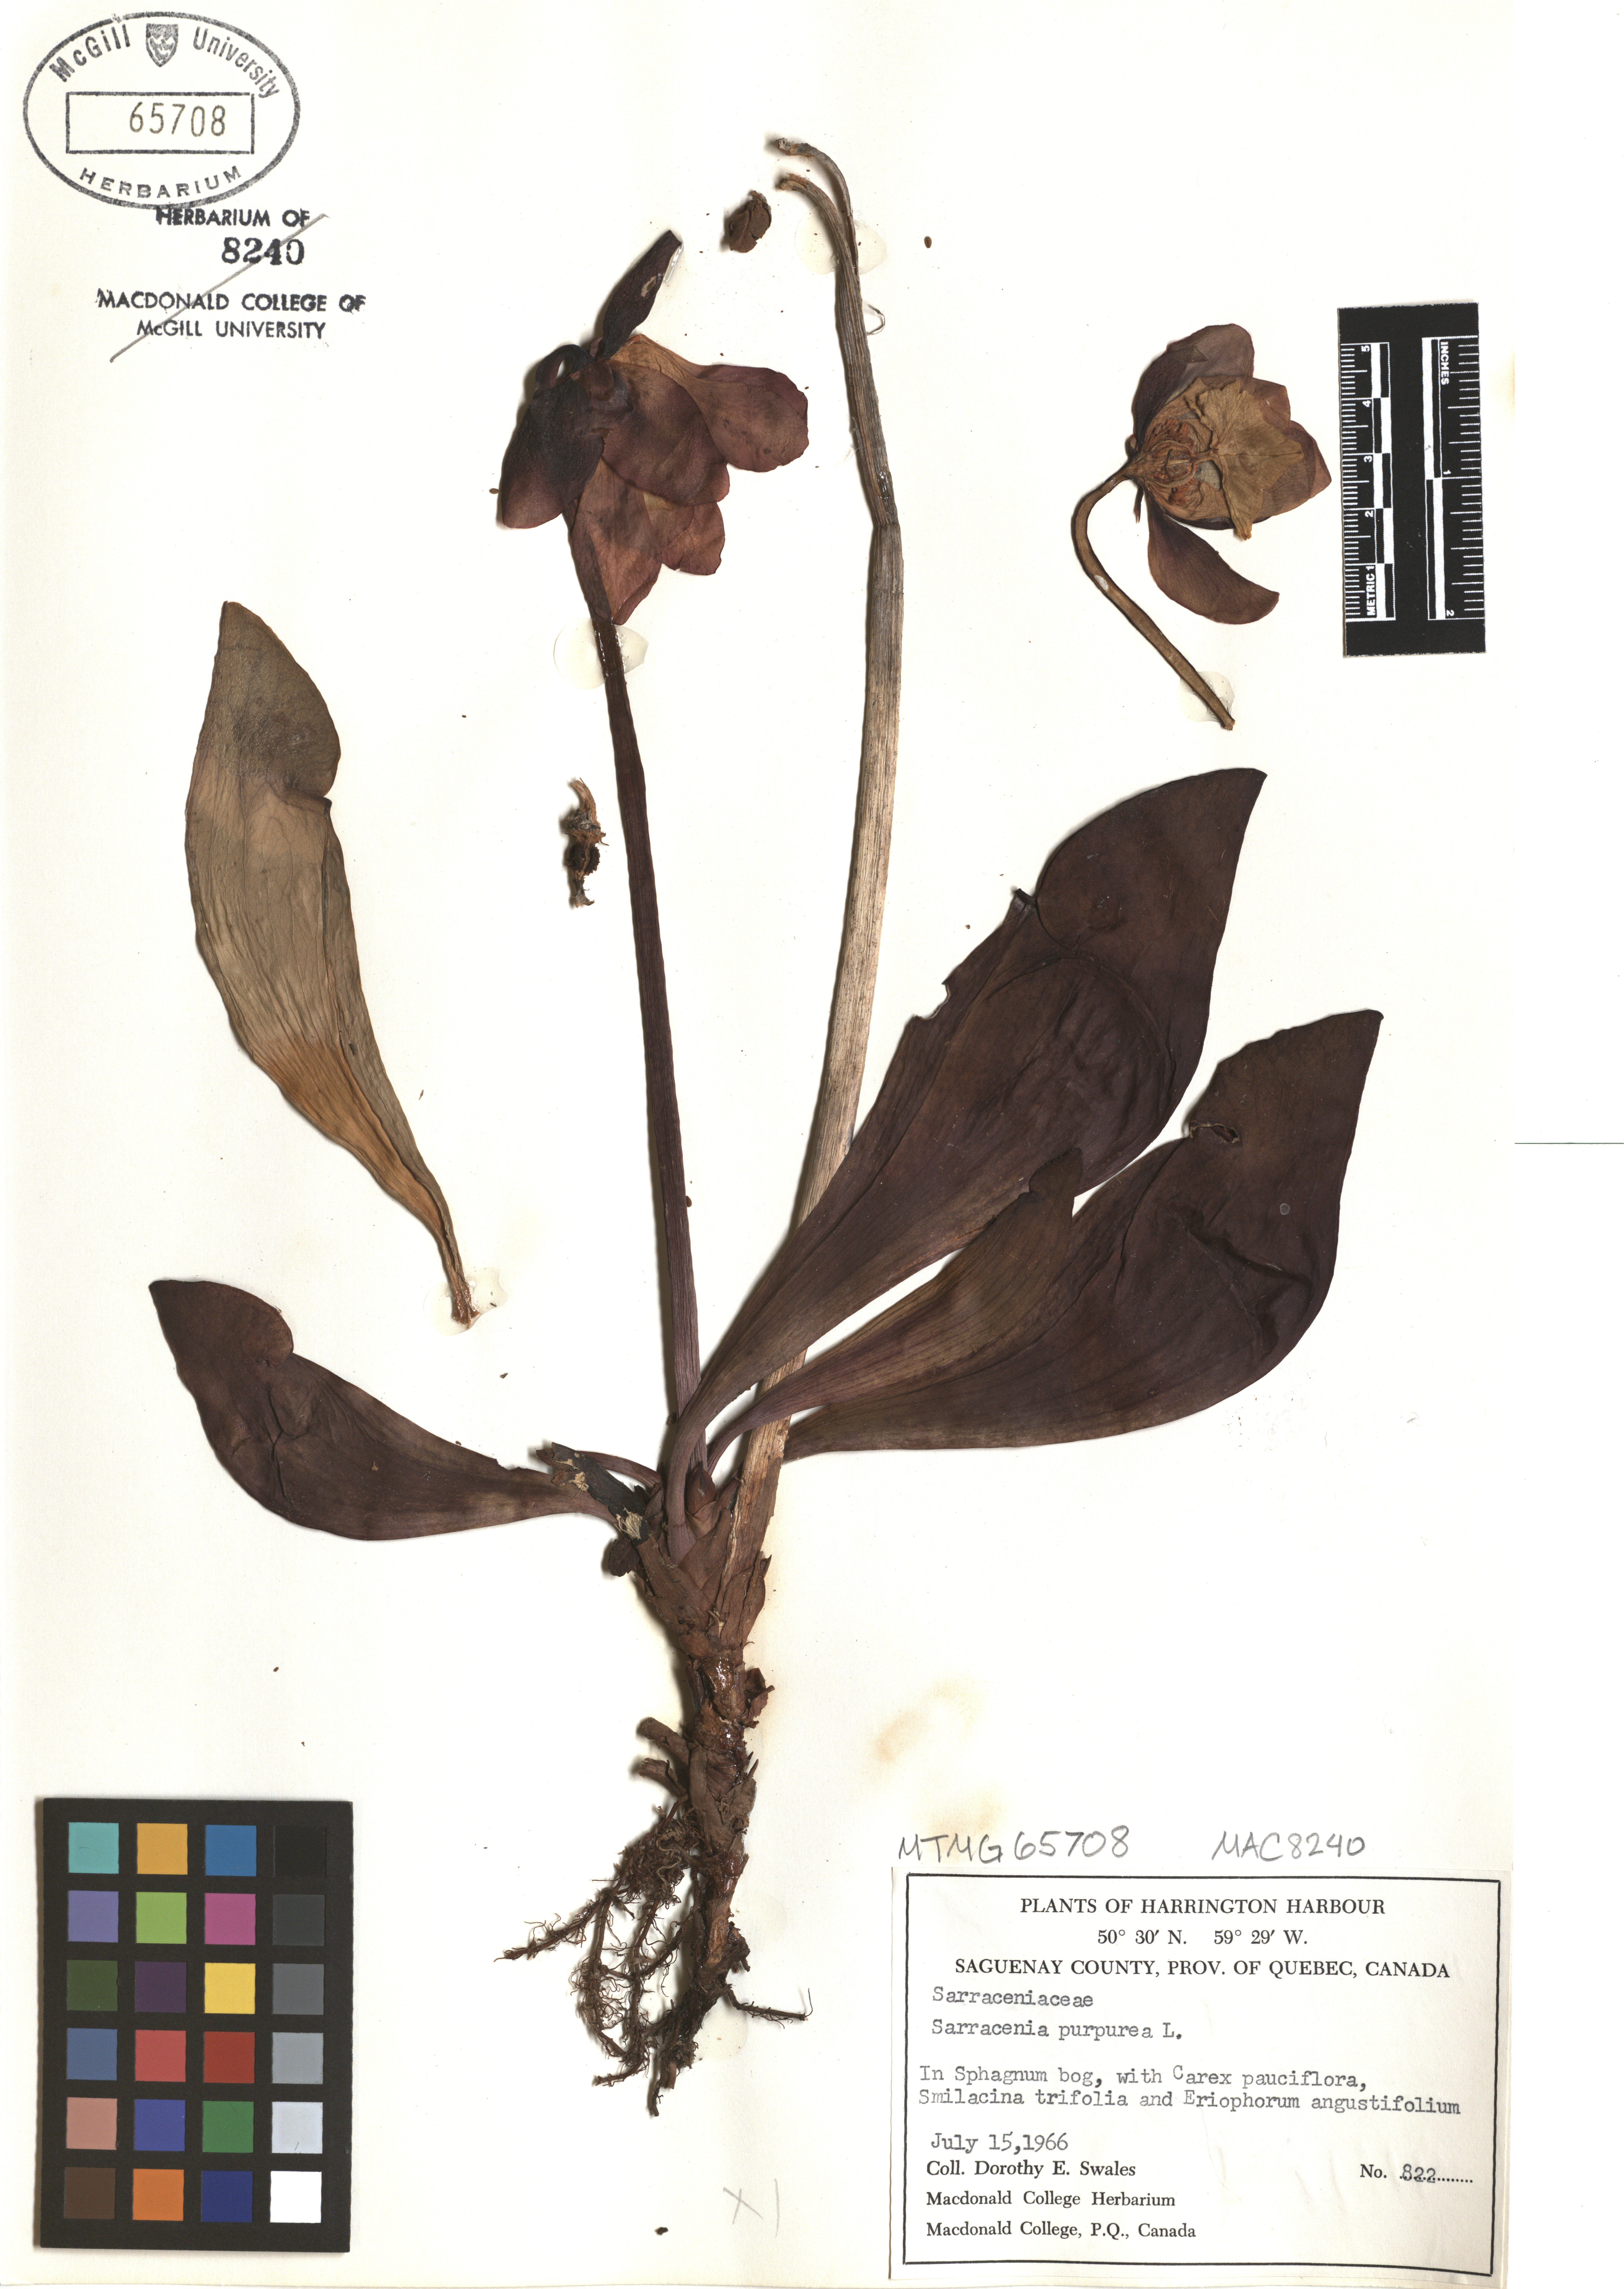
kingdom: Plantae
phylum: Tracheophyta
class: Magnoliopsida
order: Ericales
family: Sarraceniaceae
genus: Sarracenia
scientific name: Sarracenia purpurea
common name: Pitcherplant
